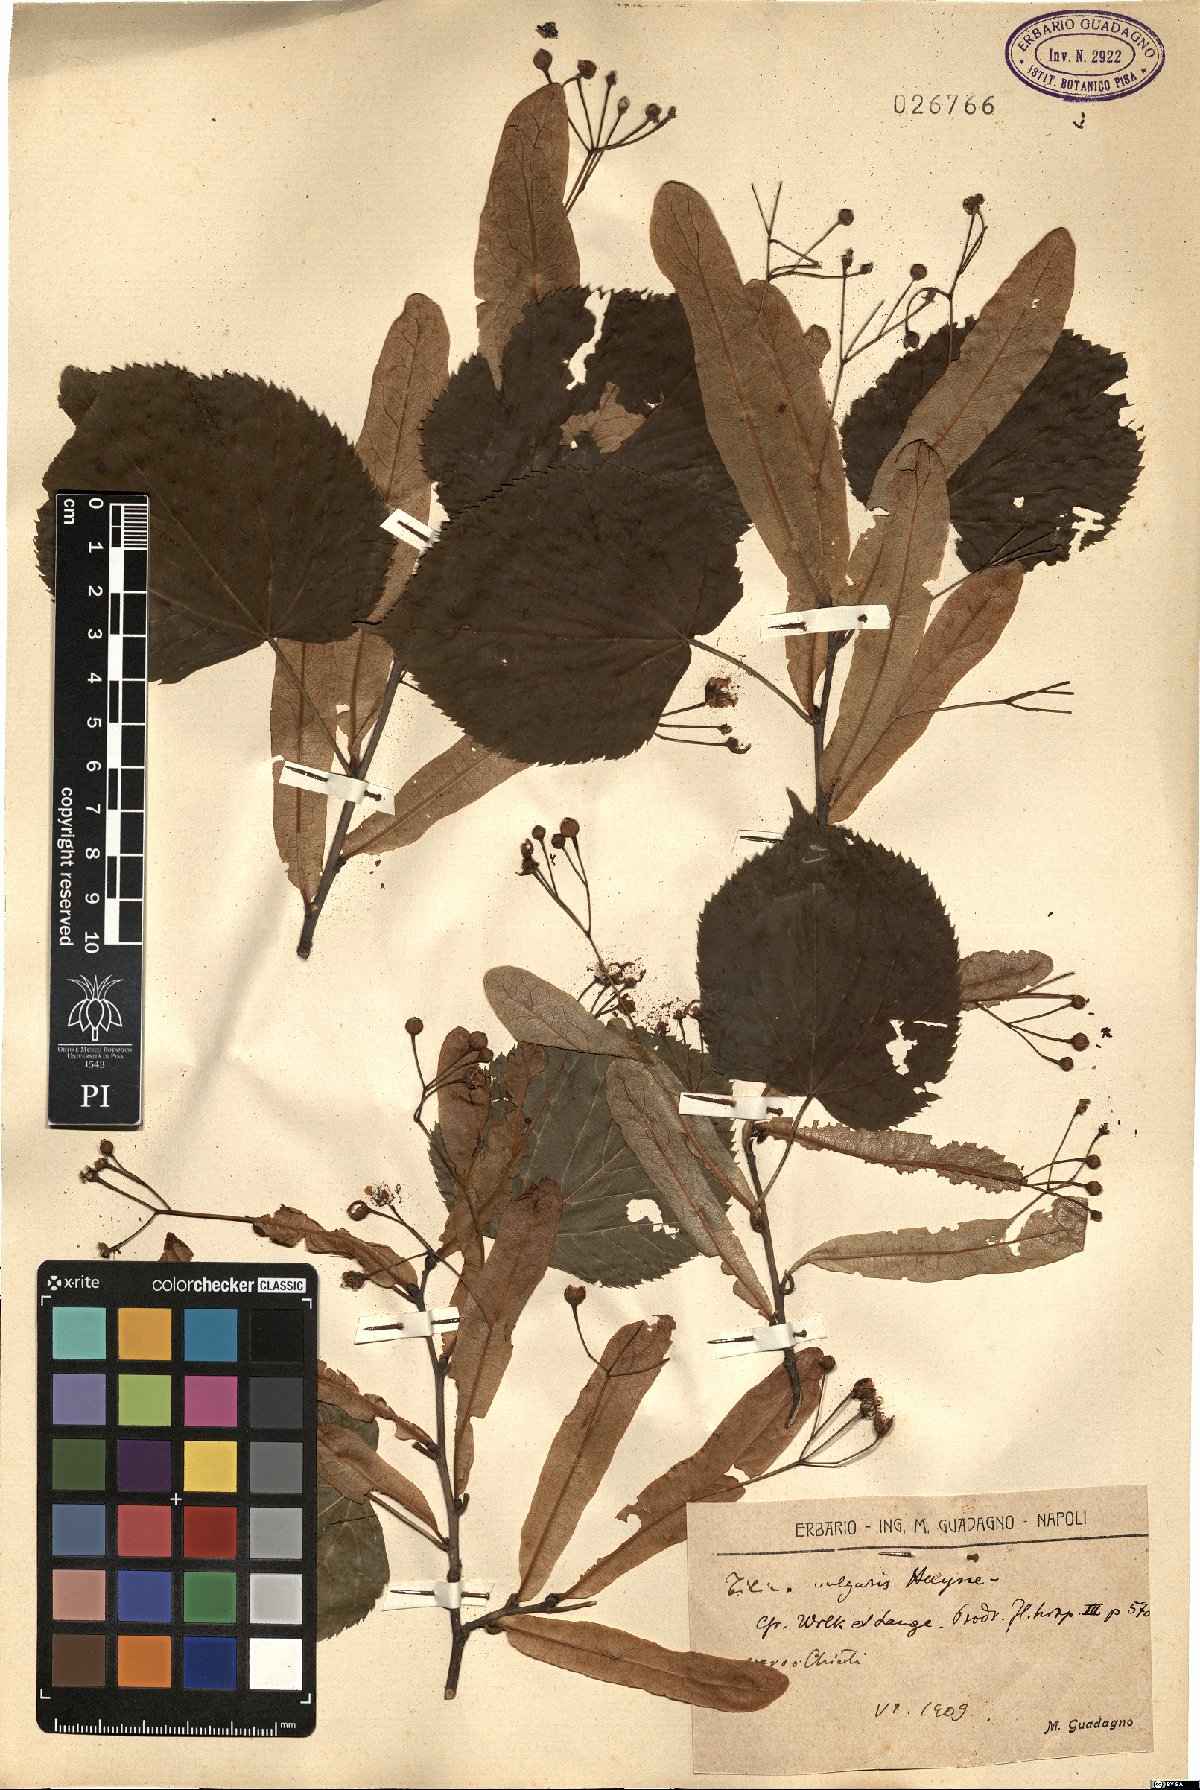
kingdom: Plantae
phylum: Tracheophyta
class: Magnoliopsida
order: Malvales
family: Malvaceae
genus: Tilia
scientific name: Tilia europaea
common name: European linden
